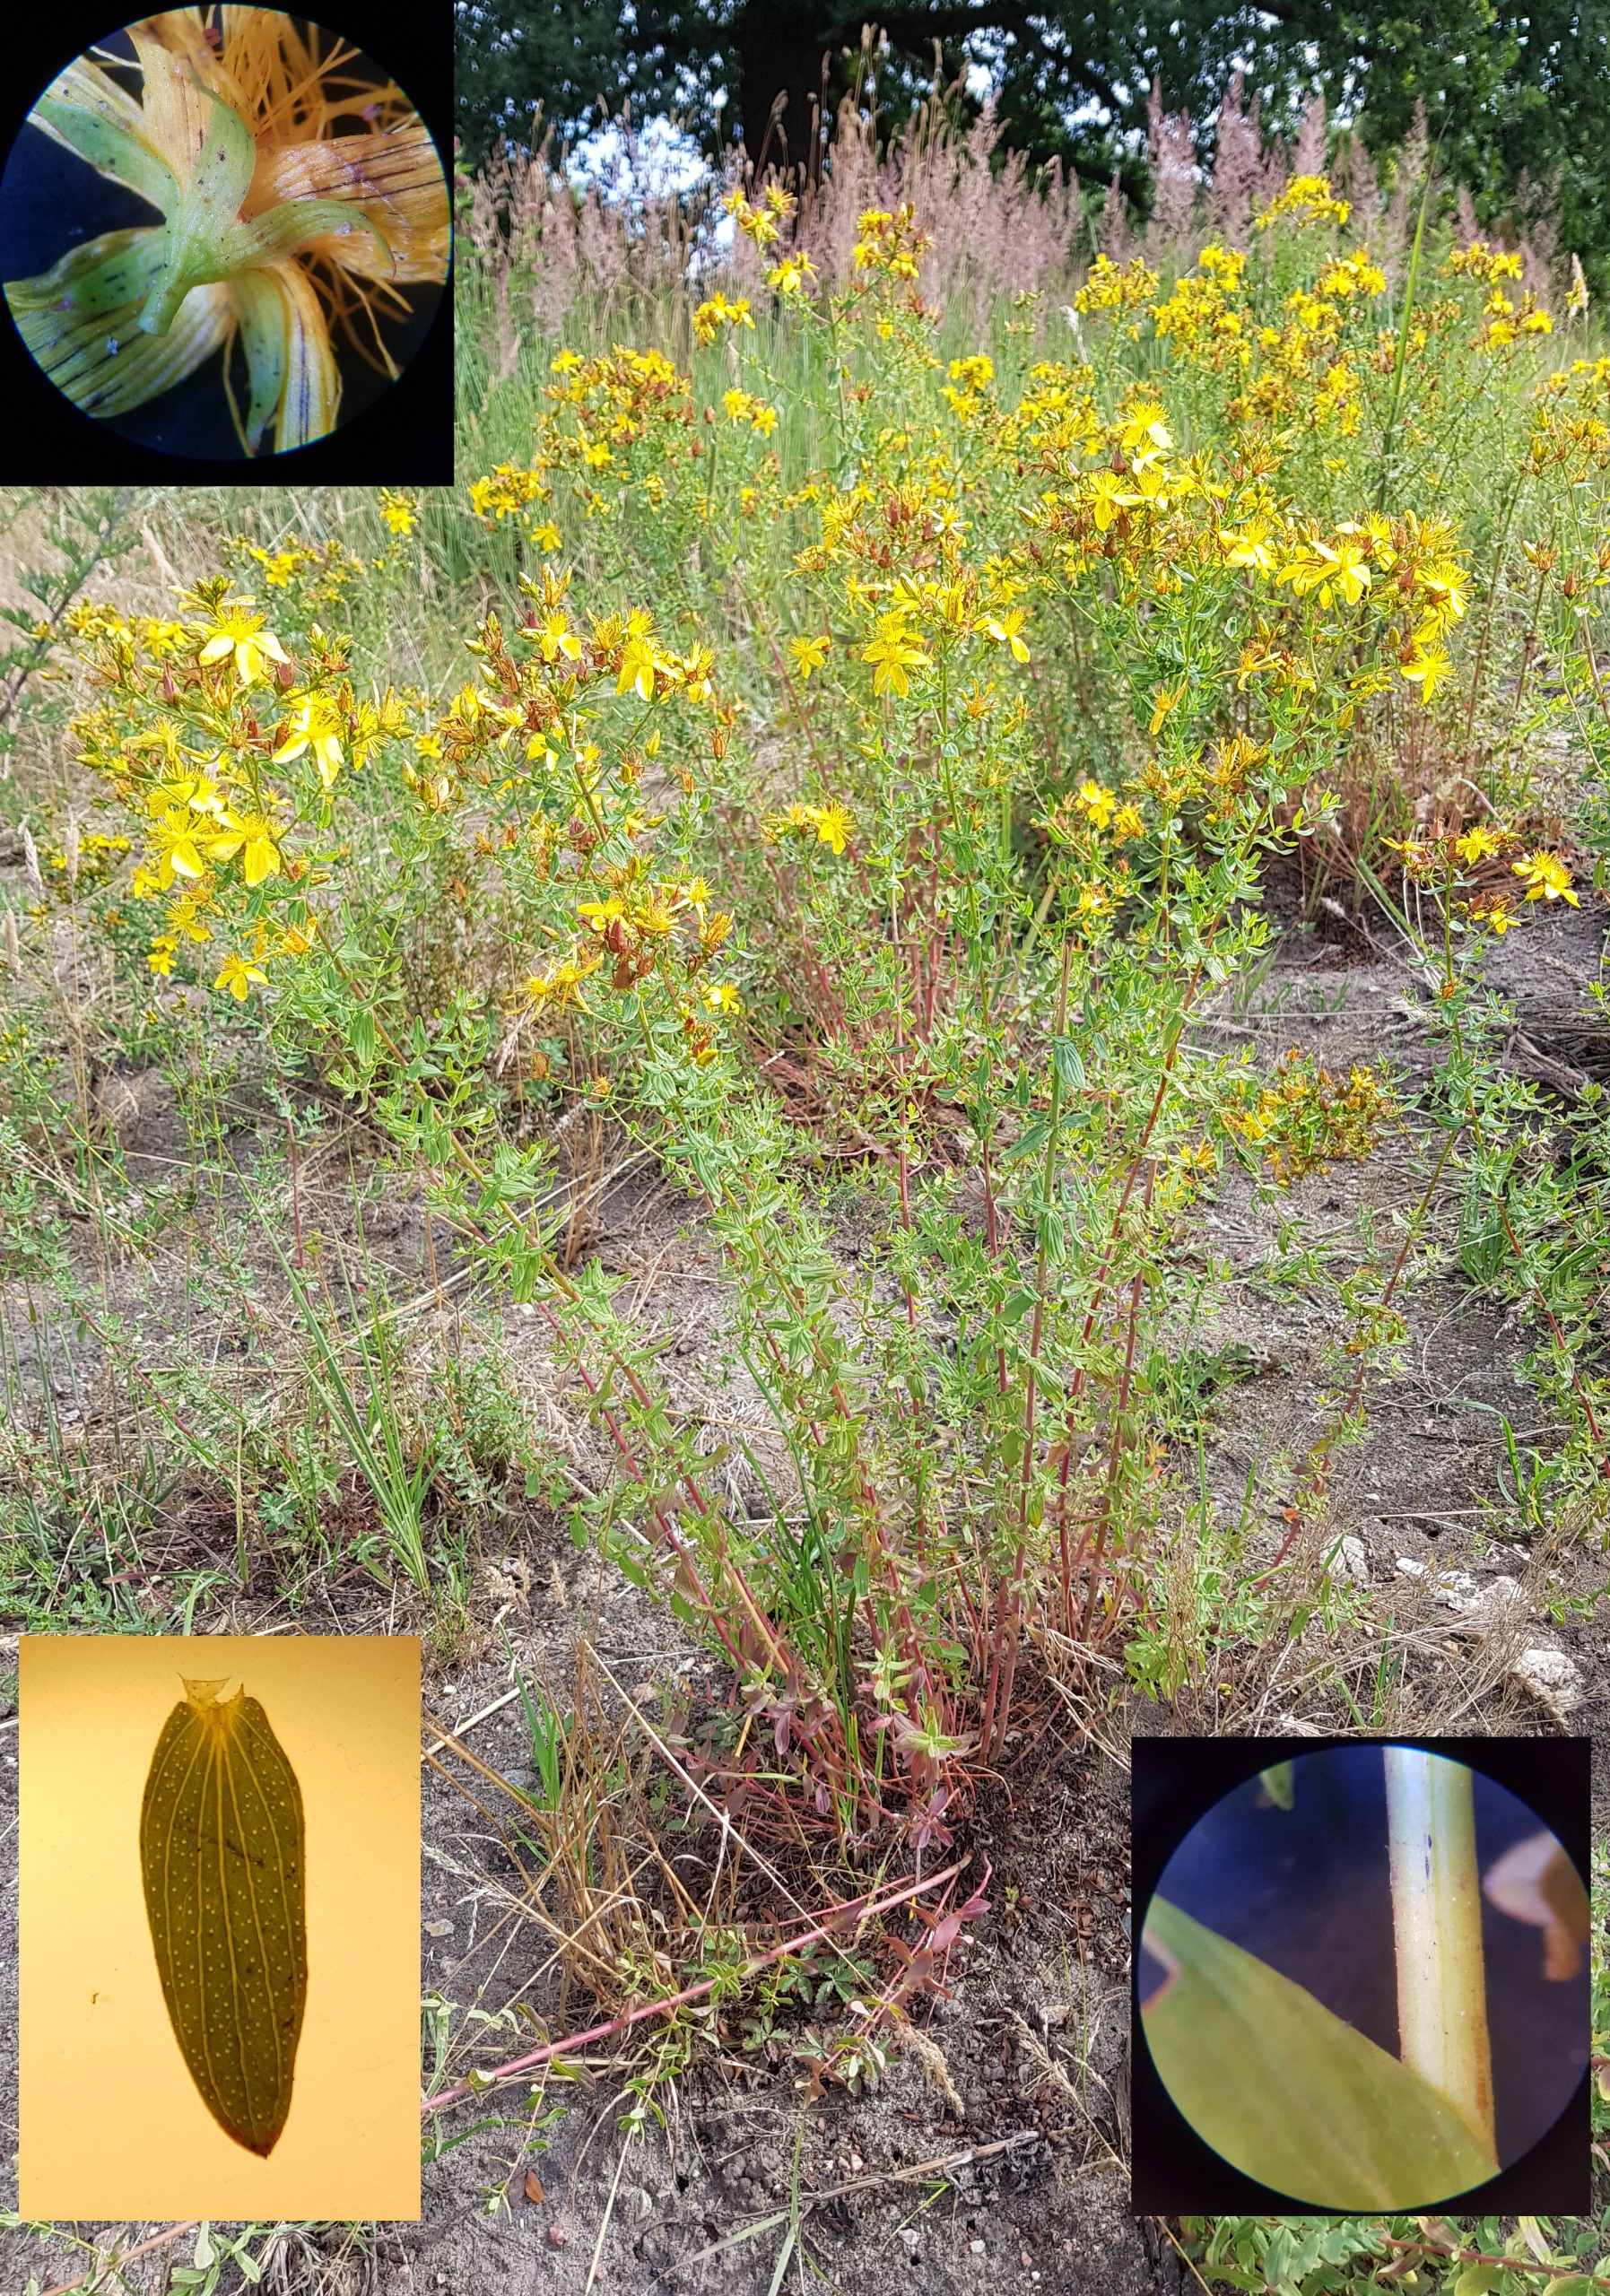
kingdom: Plantae
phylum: Tracheophyta
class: Magnoliopsida
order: Malpighiales
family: Hypericaceae
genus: Hypericum
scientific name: Hypericum perforatum
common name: Prikbladet perikon
